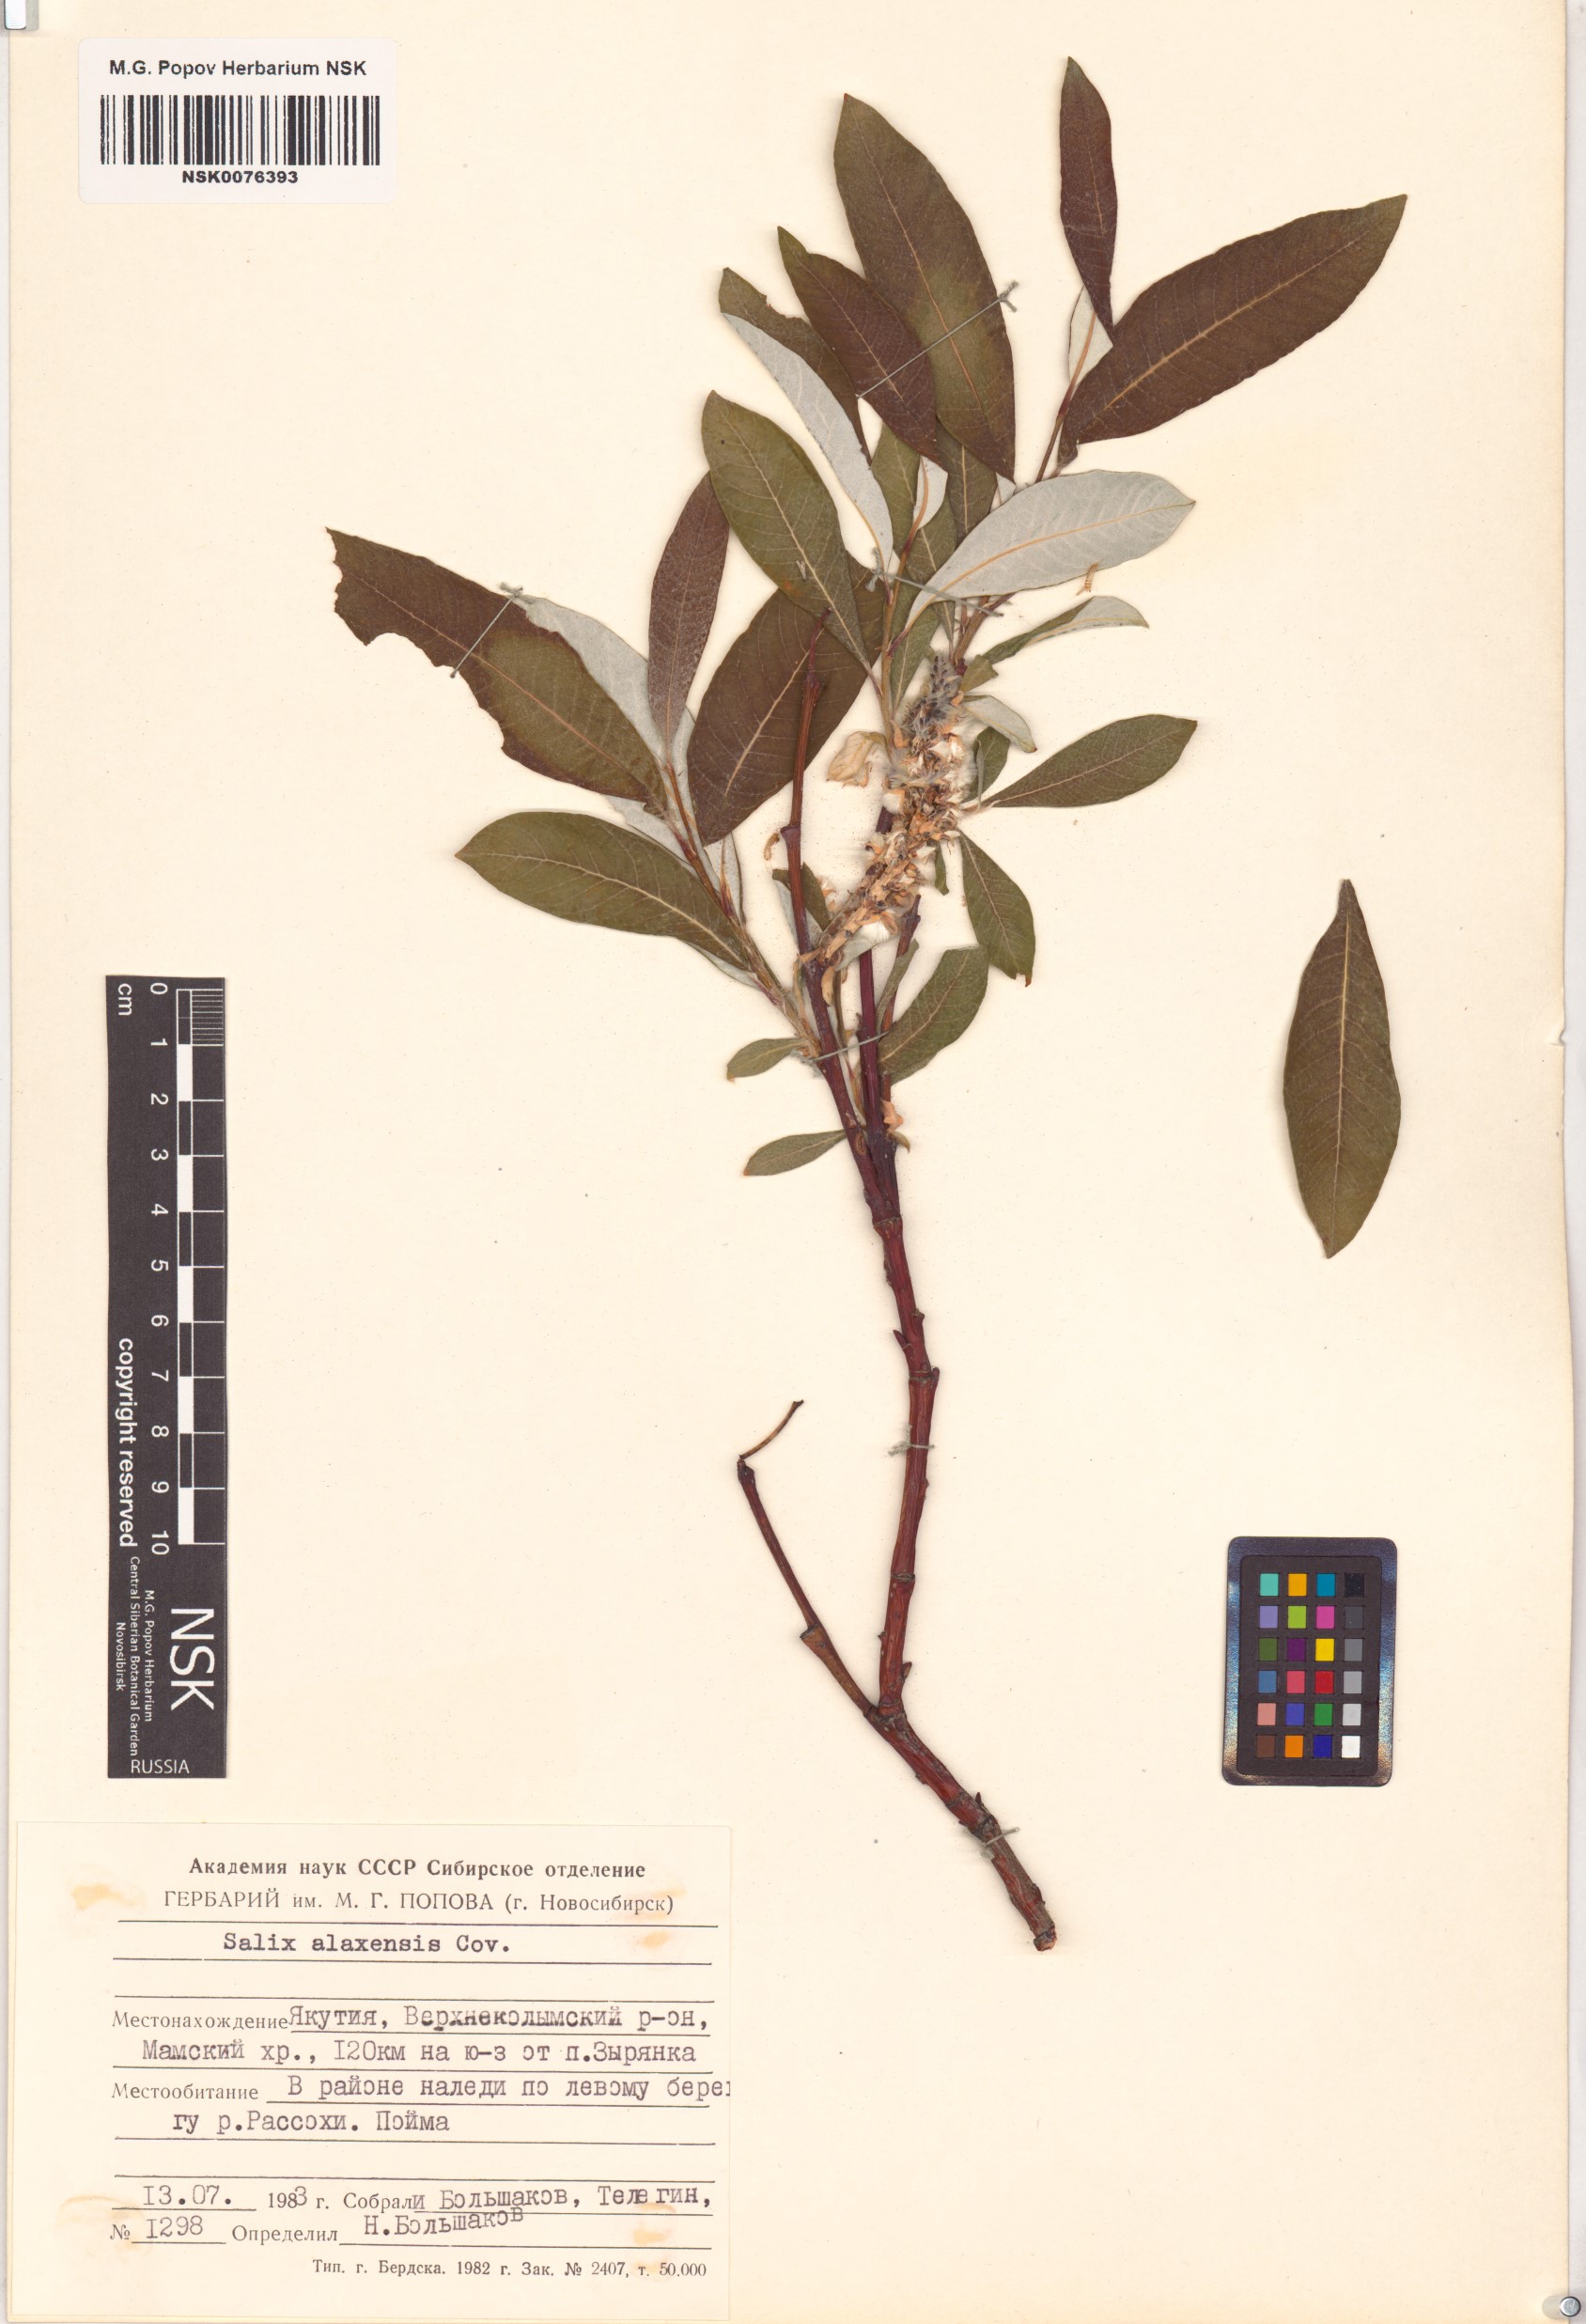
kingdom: Plantae
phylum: Tracheophyta
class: Magnoliopsida
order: Malpighiales
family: Salicaceae
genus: Salix
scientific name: Salix alaxensis
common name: Feltleaf willow
